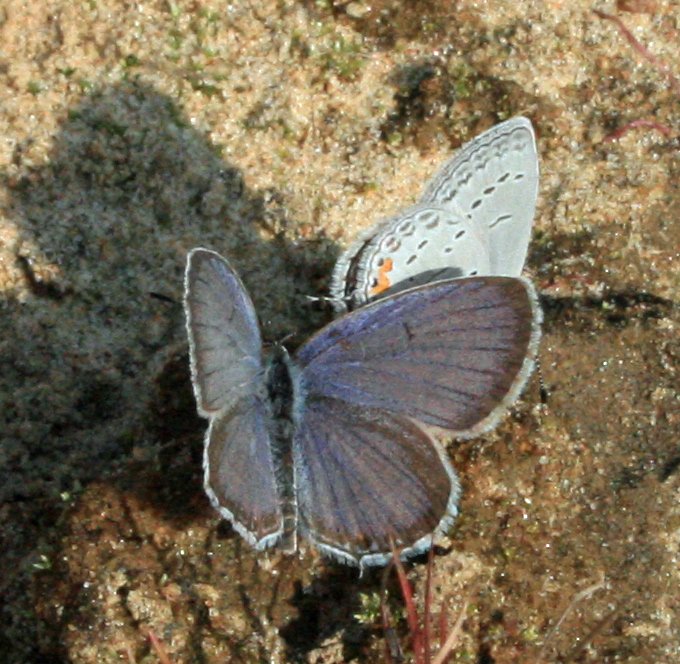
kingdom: Animalia
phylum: Arthropoda
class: Insecta
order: Lepidoptera
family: Lycaenidae
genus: Elkalyce
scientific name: Elkalyce comyntas
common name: Eastern Tailed-Blue
